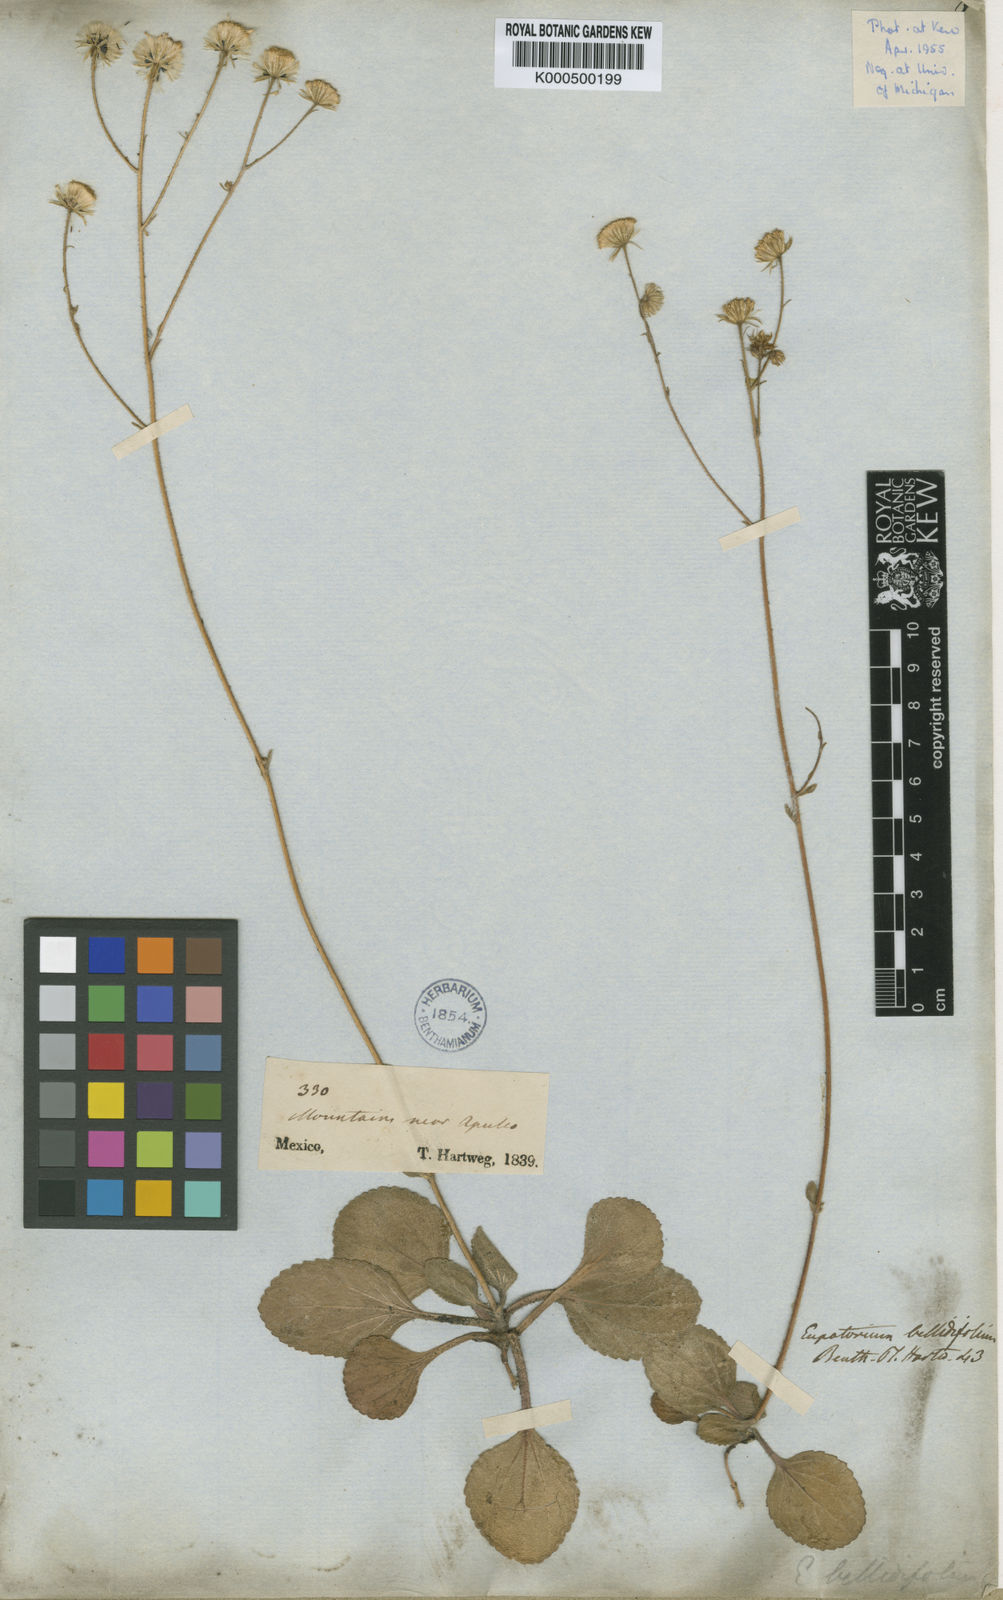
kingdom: Plantae
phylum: Tracheophyta
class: Magnoliopsida
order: Asterales
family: Asteraceae
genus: Ageratina
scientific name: Ageratina bellidifolia
